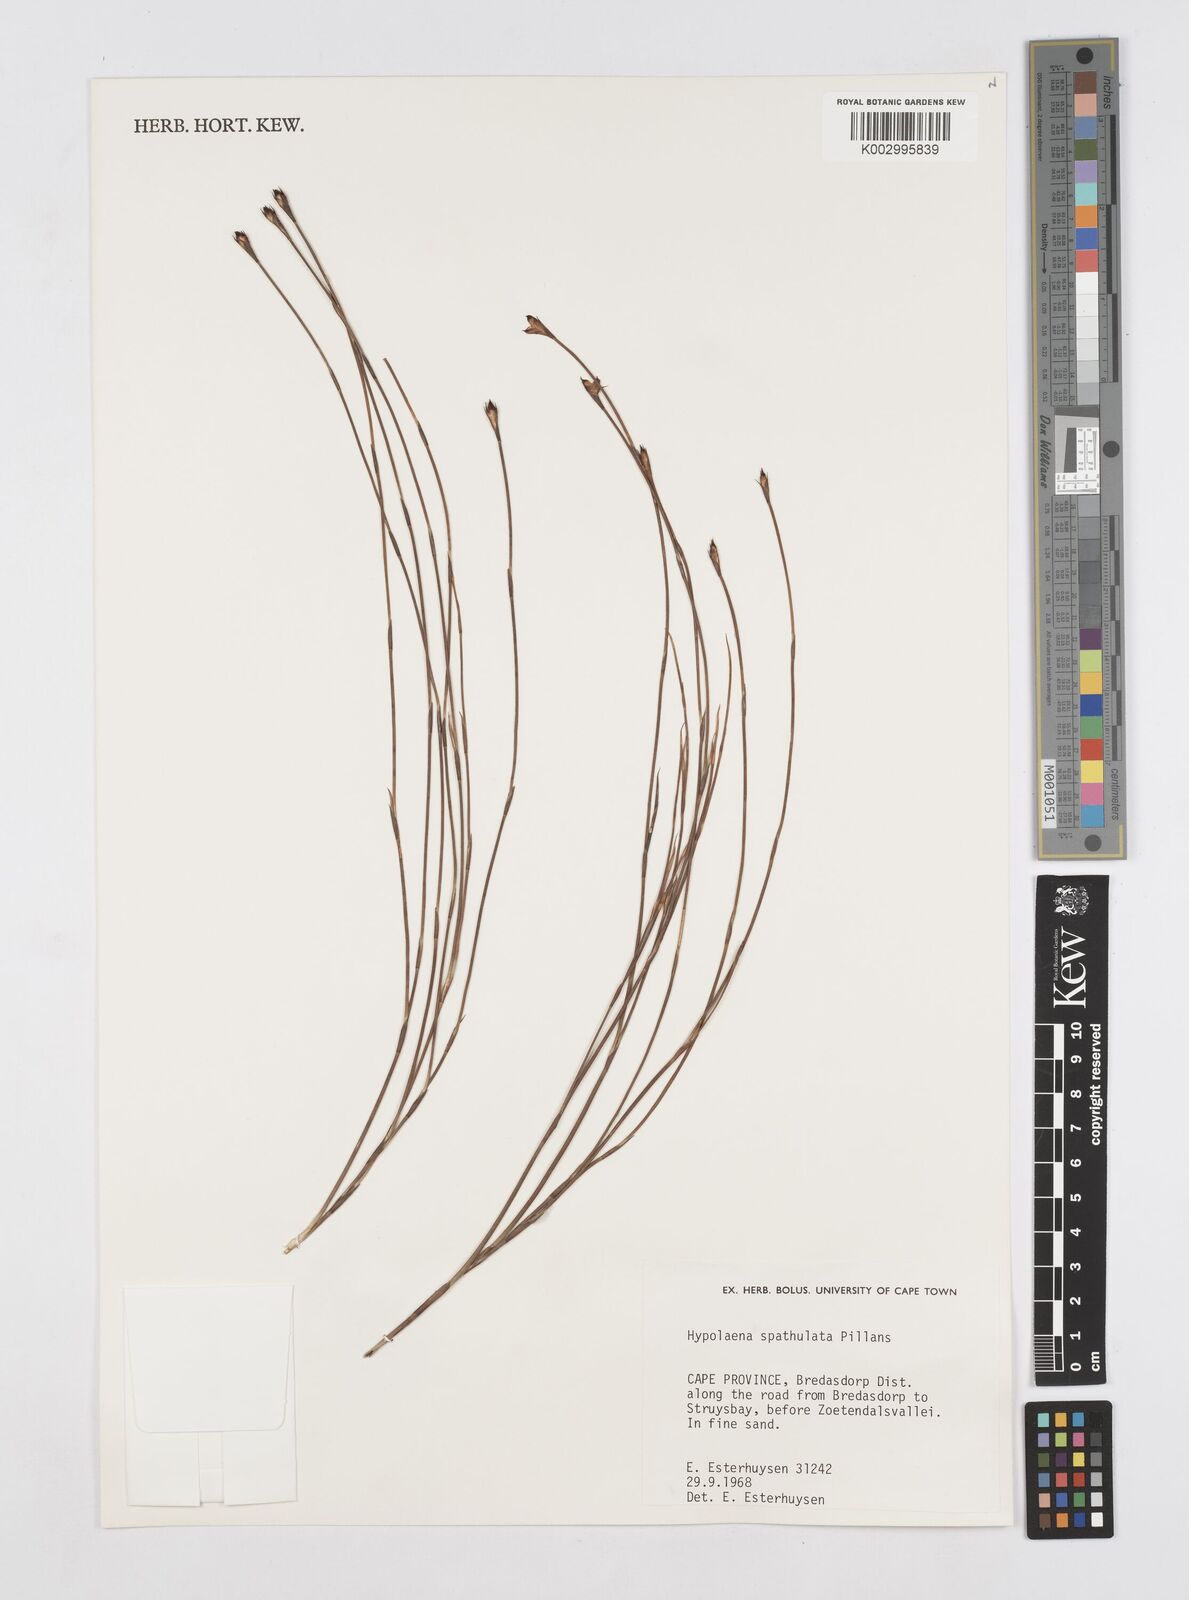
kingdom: Plantae
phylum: Tracheophyta
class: Liliopsida
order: Poales
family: Restionaceae
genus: Mastersiella
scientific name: Mastersiella spathulata
